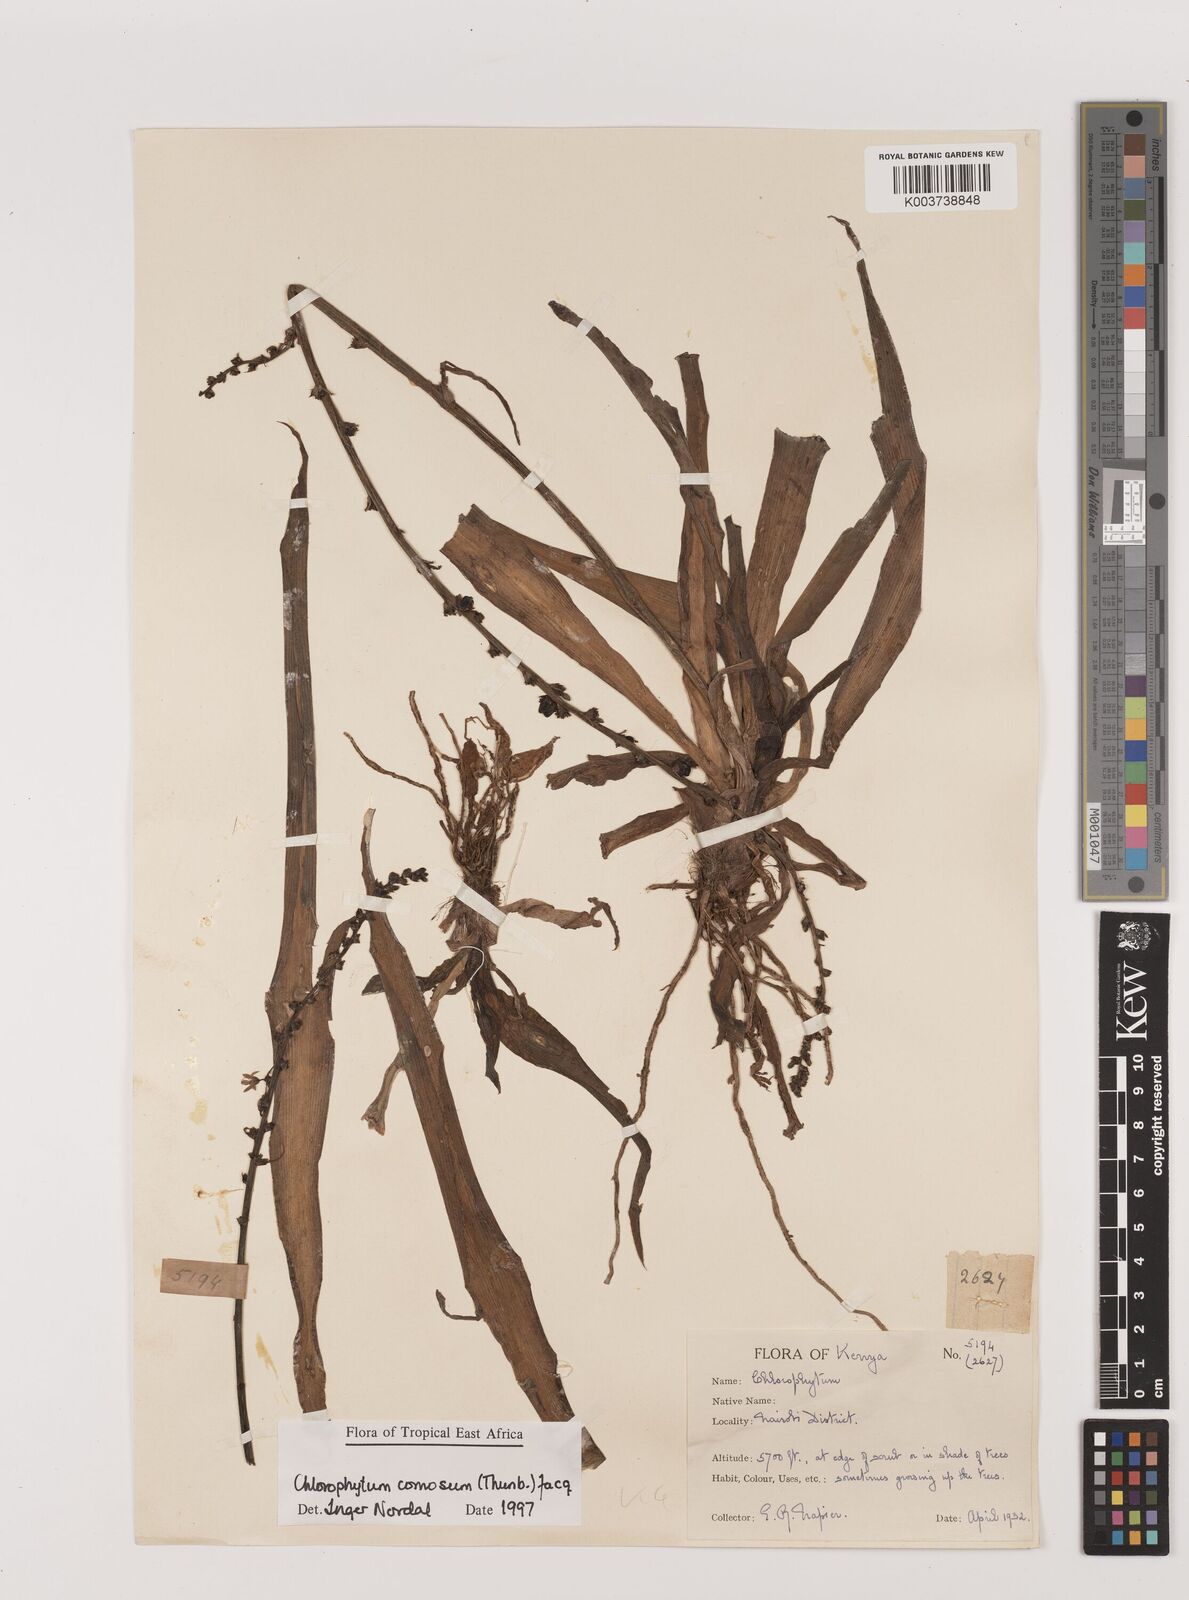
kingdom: Plantae
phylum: Tracheophyta
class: Liliopsida
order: Asparagales
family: Asparagaceae
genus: Chlorophytum
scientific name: Chlorophytum comosum
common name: Spider plant
